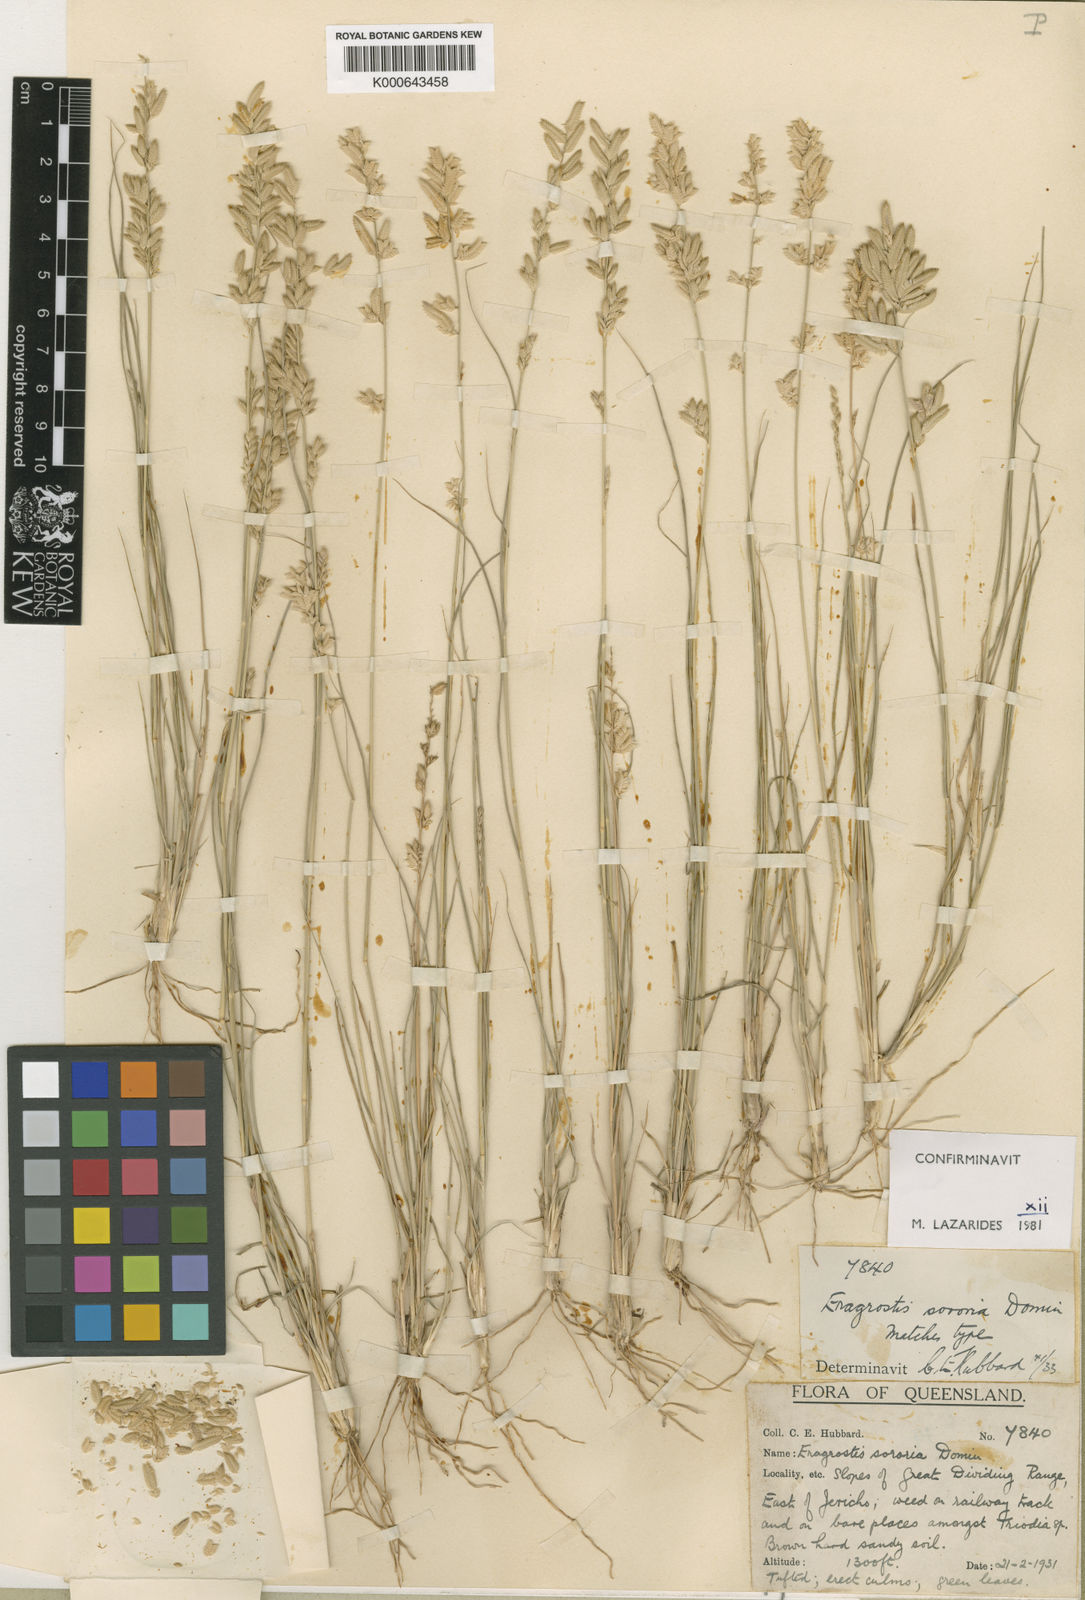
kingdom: Plantae
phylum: Tracheophyta
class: Liliopsida
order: Poales
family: Poaceae
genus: Eragrostis
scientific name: Eragrostis sororia
